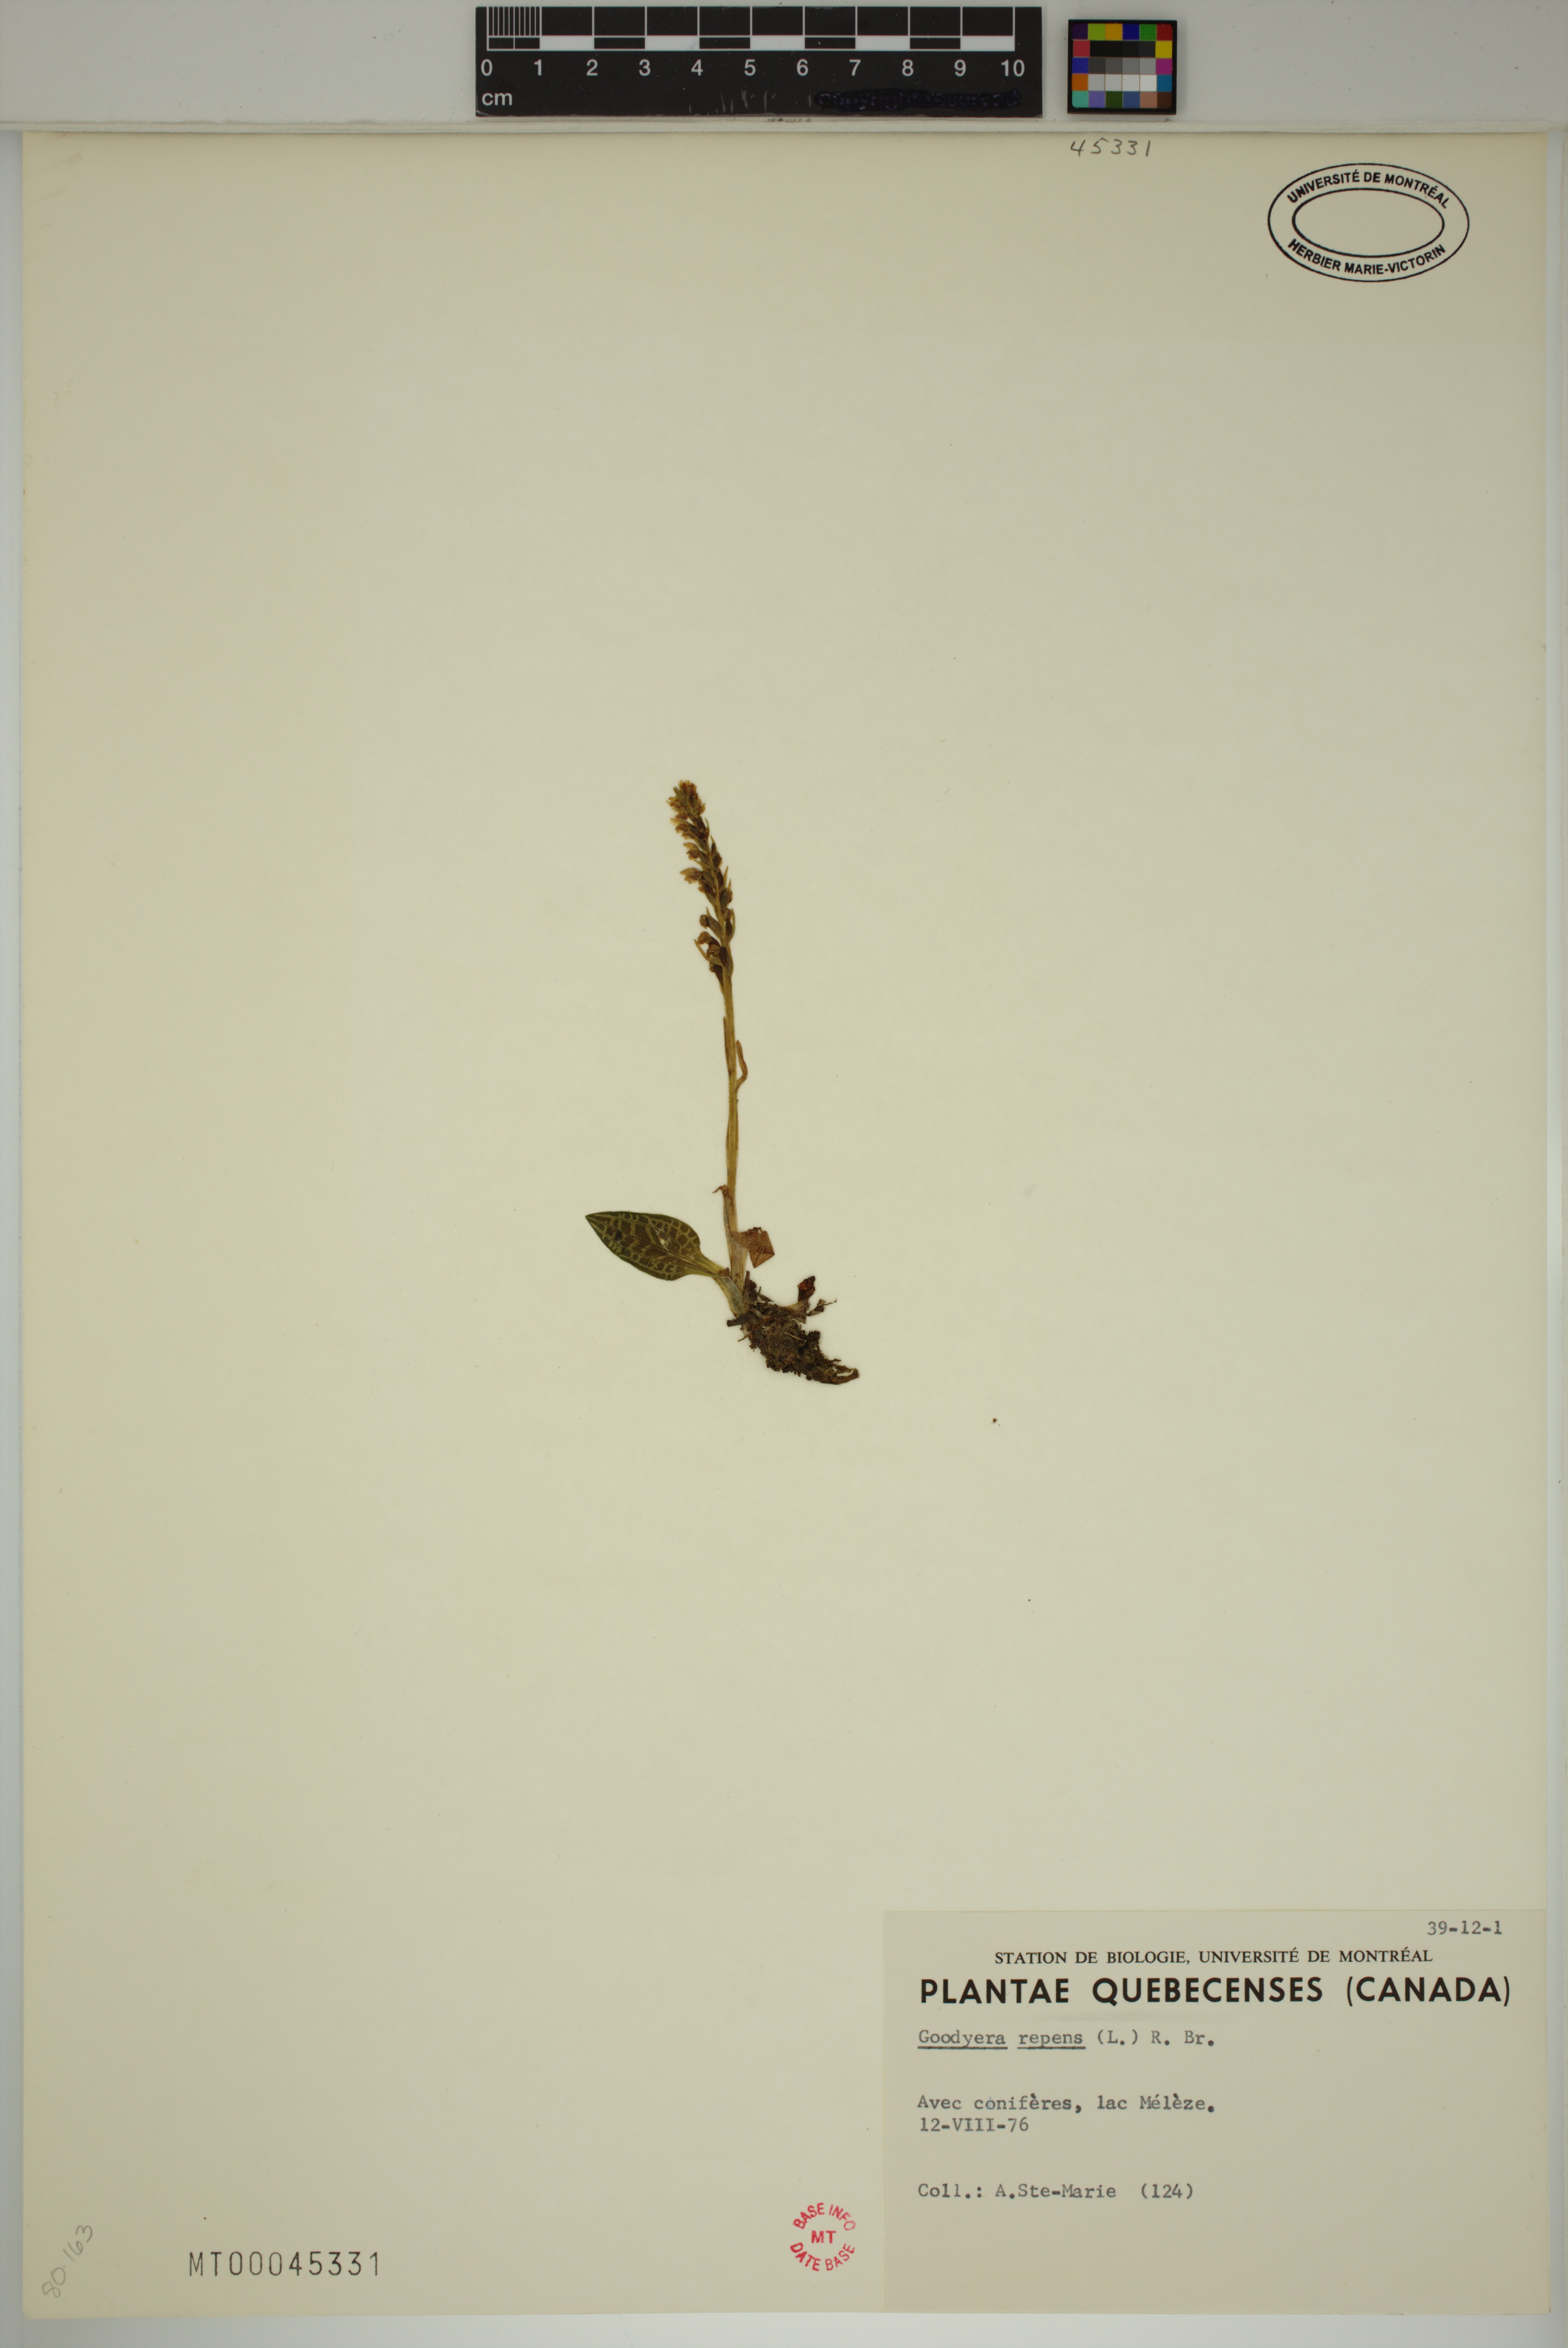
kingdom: Plantae
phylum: Tracheophyta
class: Liliopsida
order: Asparagales
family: Orchidaceae
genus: Goodyera
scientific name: Goodyera repens
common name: Creeping lady's-tresses
